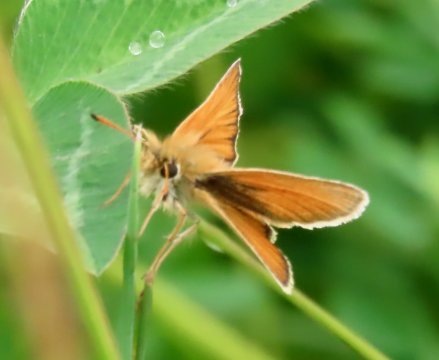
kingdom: Animalia
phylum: Arthropoda
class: Insecta
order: Lepidoptera
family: Hesperiidae
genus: Thymelicus
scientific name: Thymelicus lineola
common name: European Skipper
